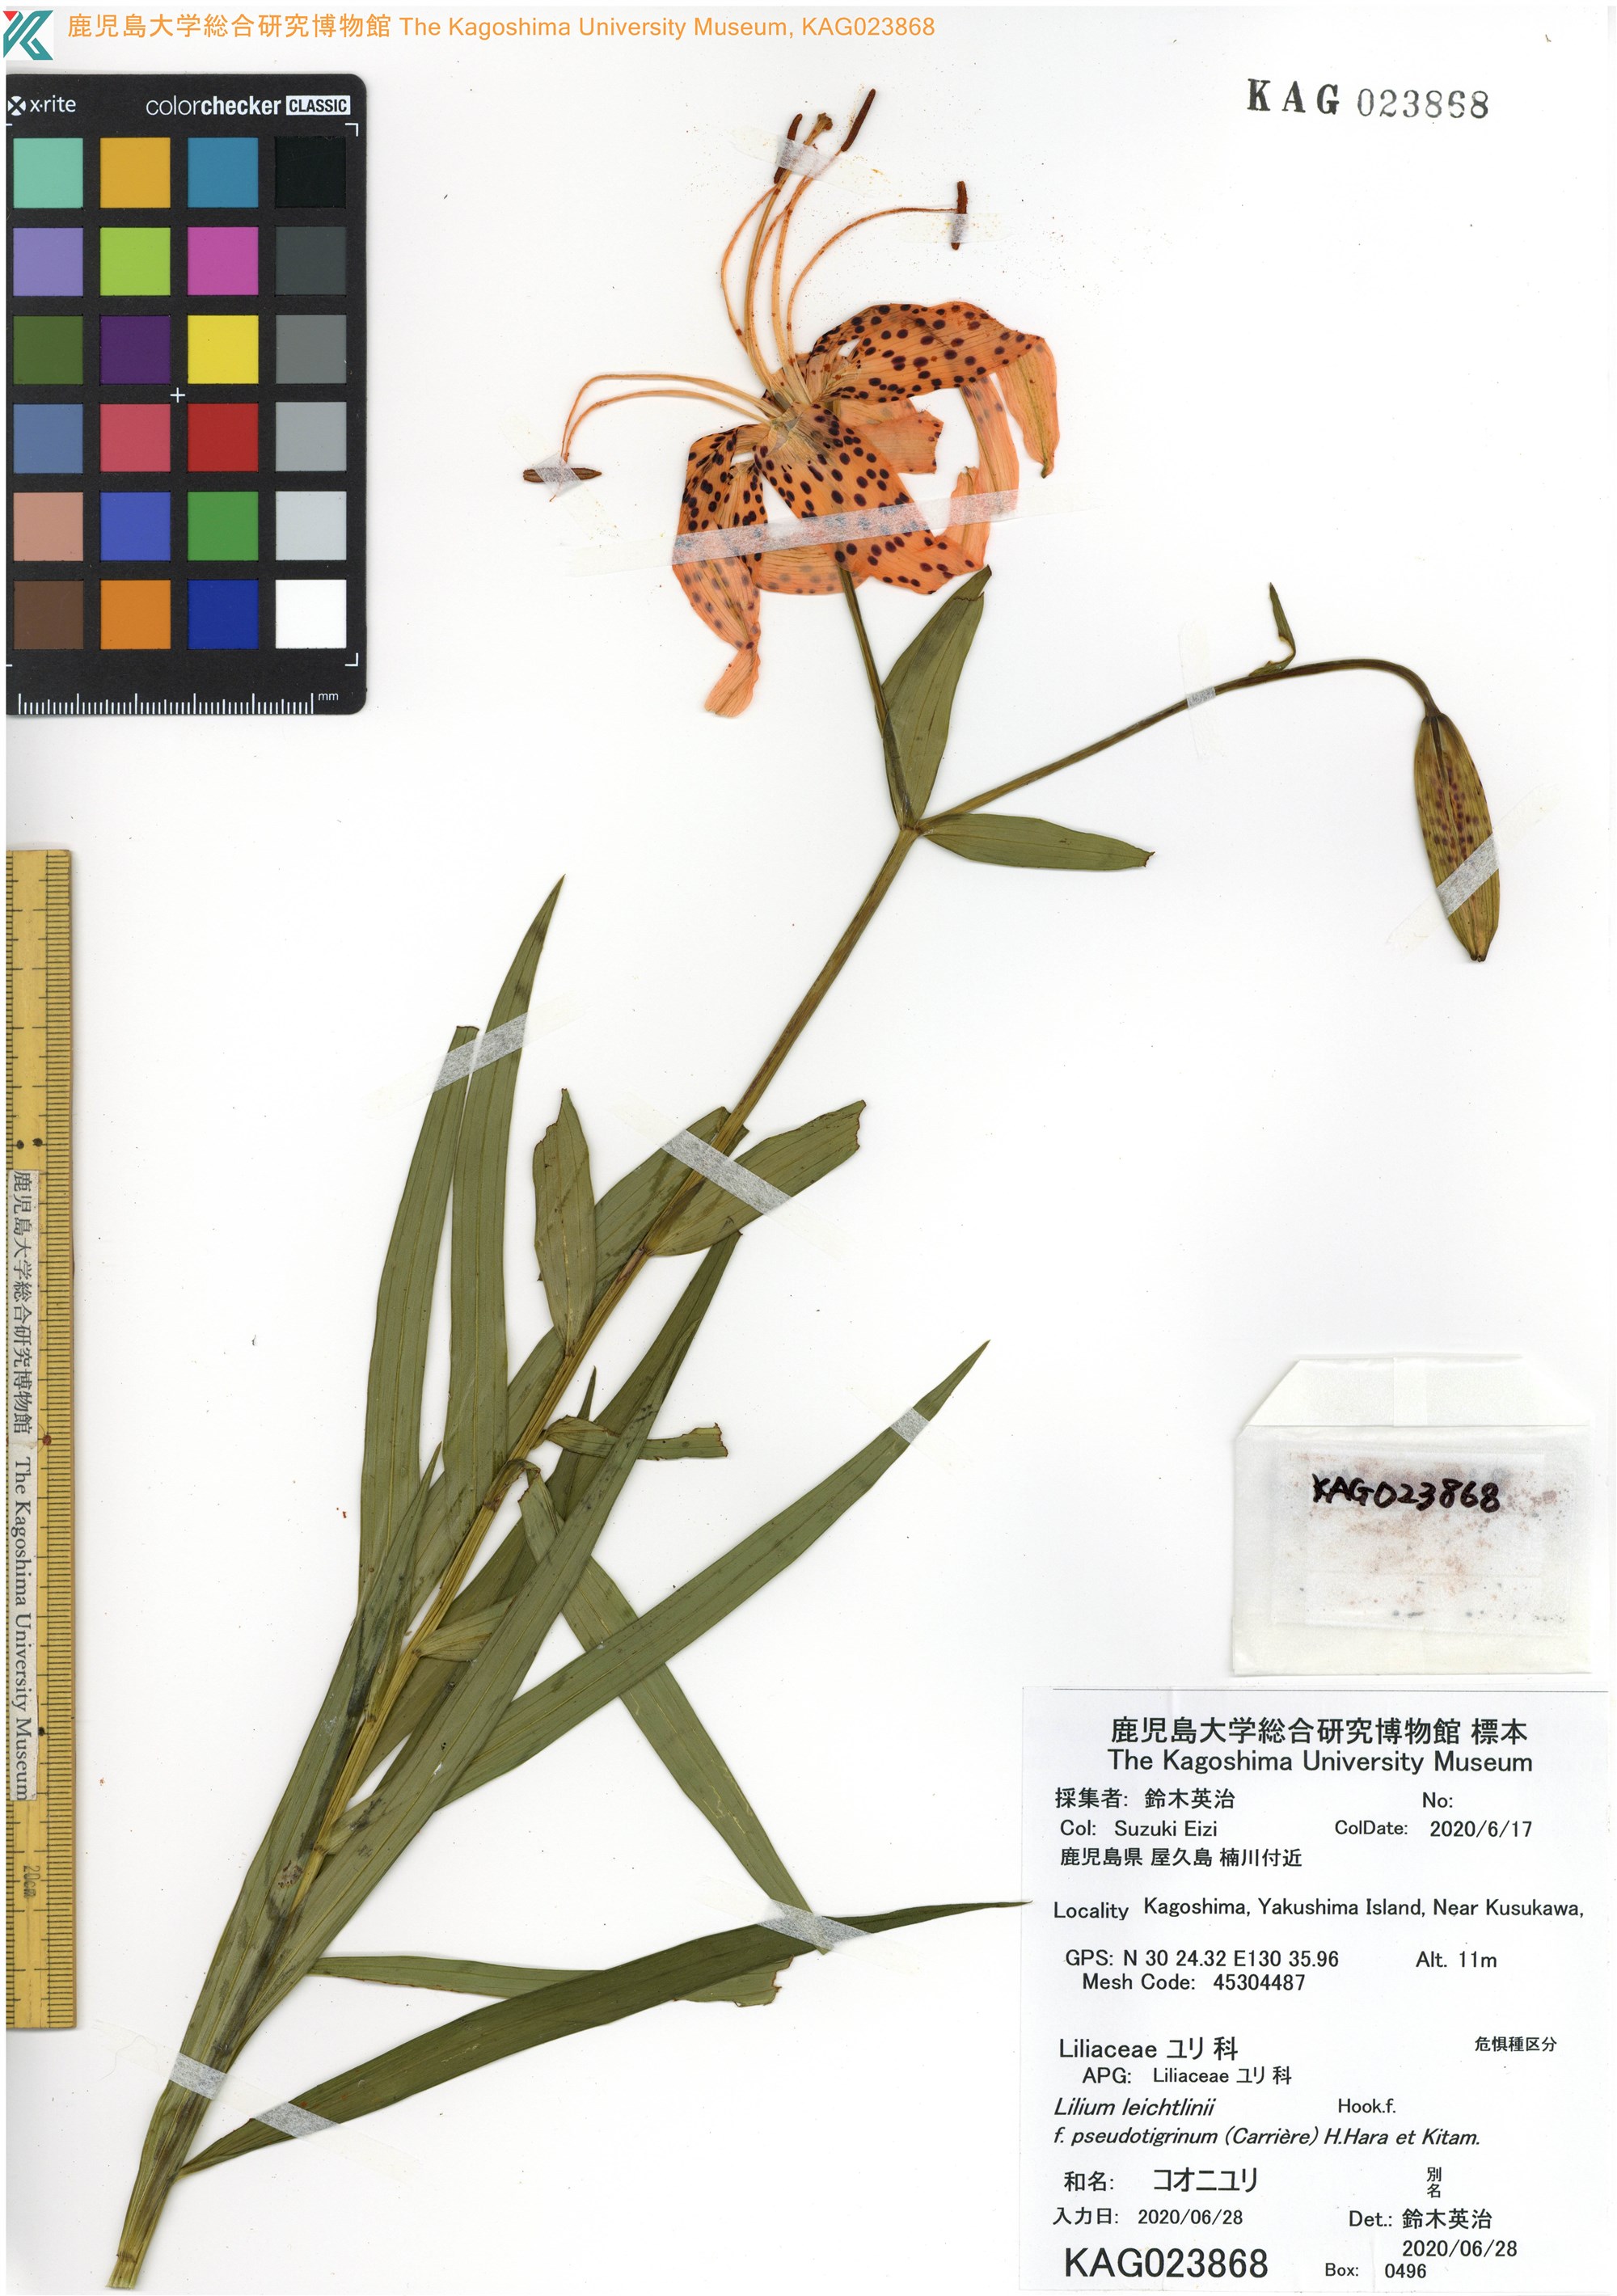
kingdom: Plantae
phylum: Tracheophyta
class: Liliopsida
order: Liliales
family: Liliaceae
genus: Lilium
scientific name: Lilium leichtlinii
